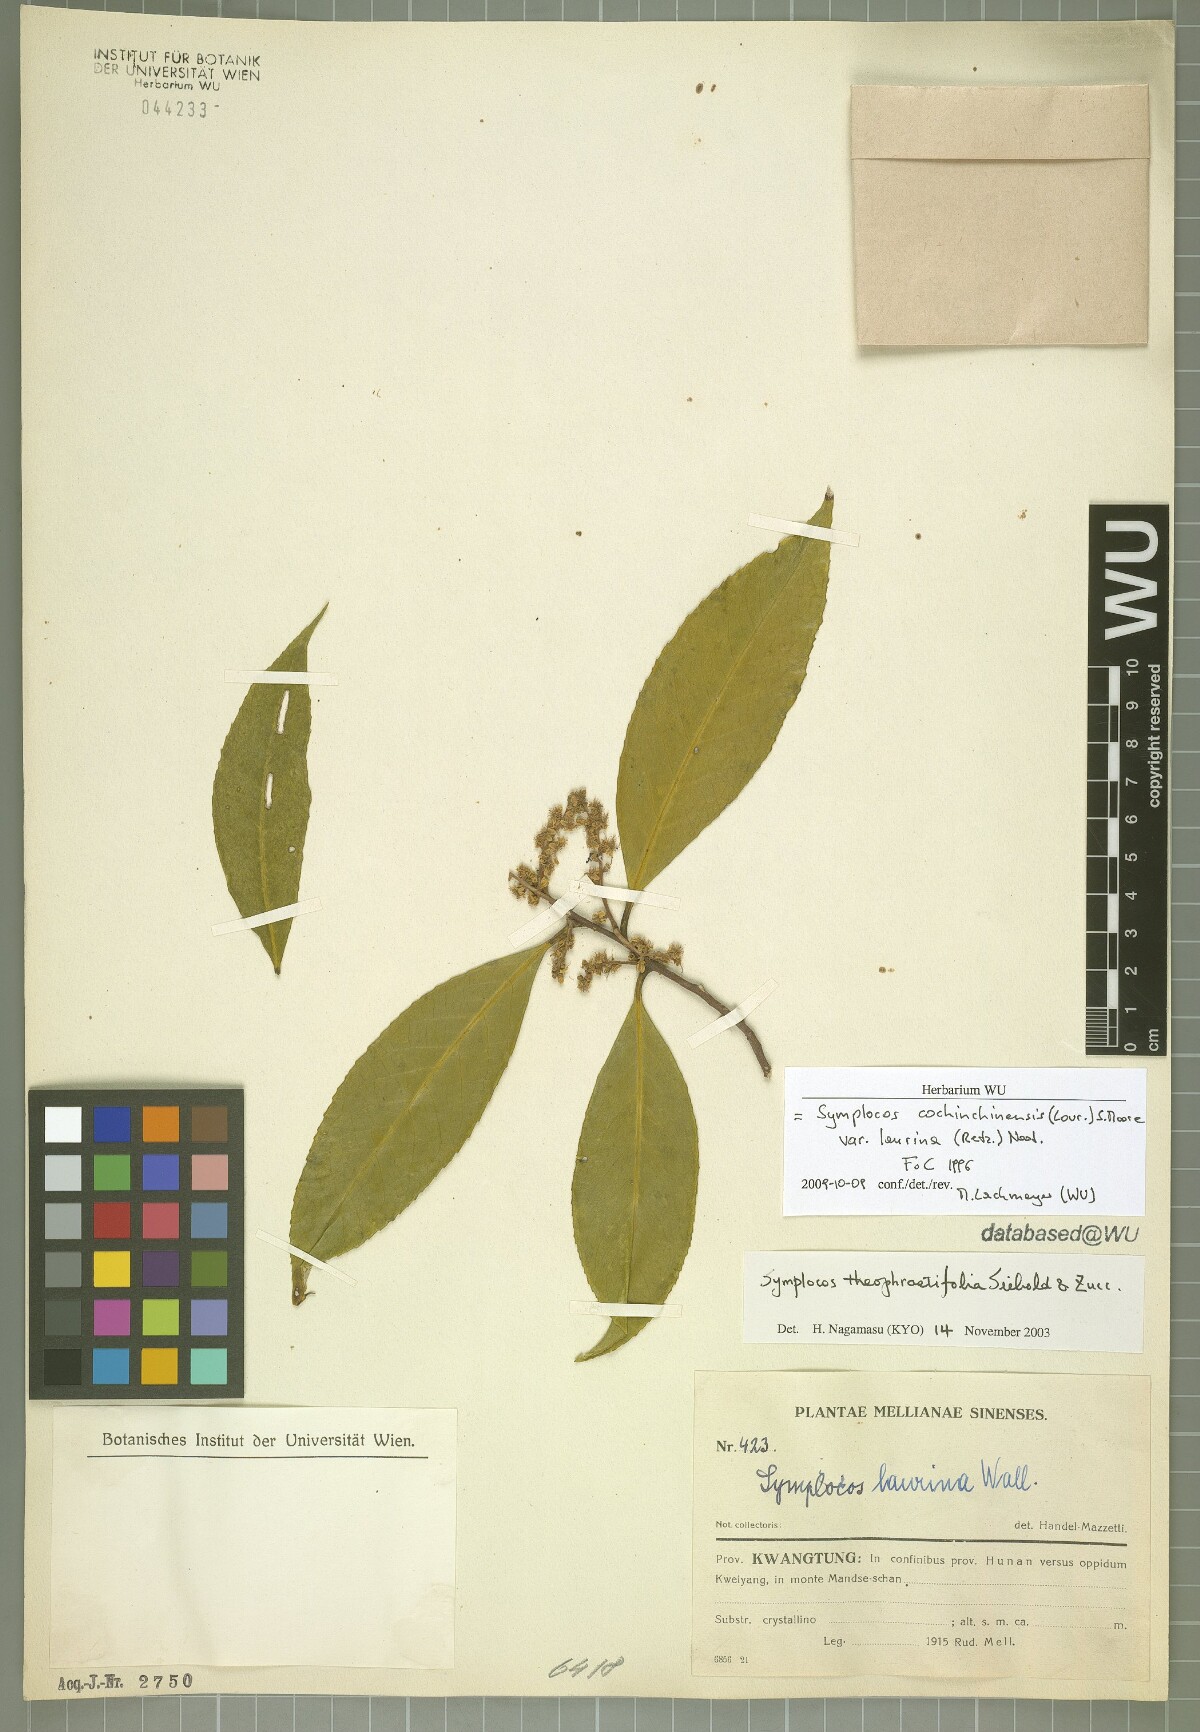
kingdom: Plantae
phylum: Tracheophyta
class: Magnoliopsida
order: Ericales
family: Symplocaceae
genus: Symplocos
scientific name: Symplocos acuminata
